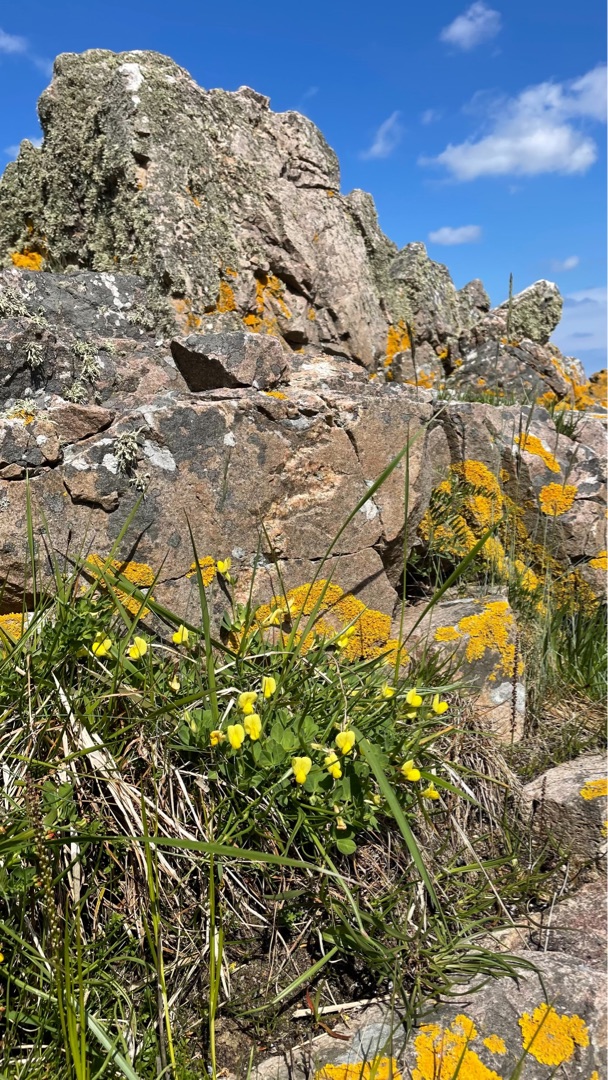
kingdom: Plantae
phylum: Tracheophyta
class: Magnoliopsida
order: Fabales
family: Fabaceae
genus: Lotus
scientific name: Lotus maritimus
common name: Kantbælg
